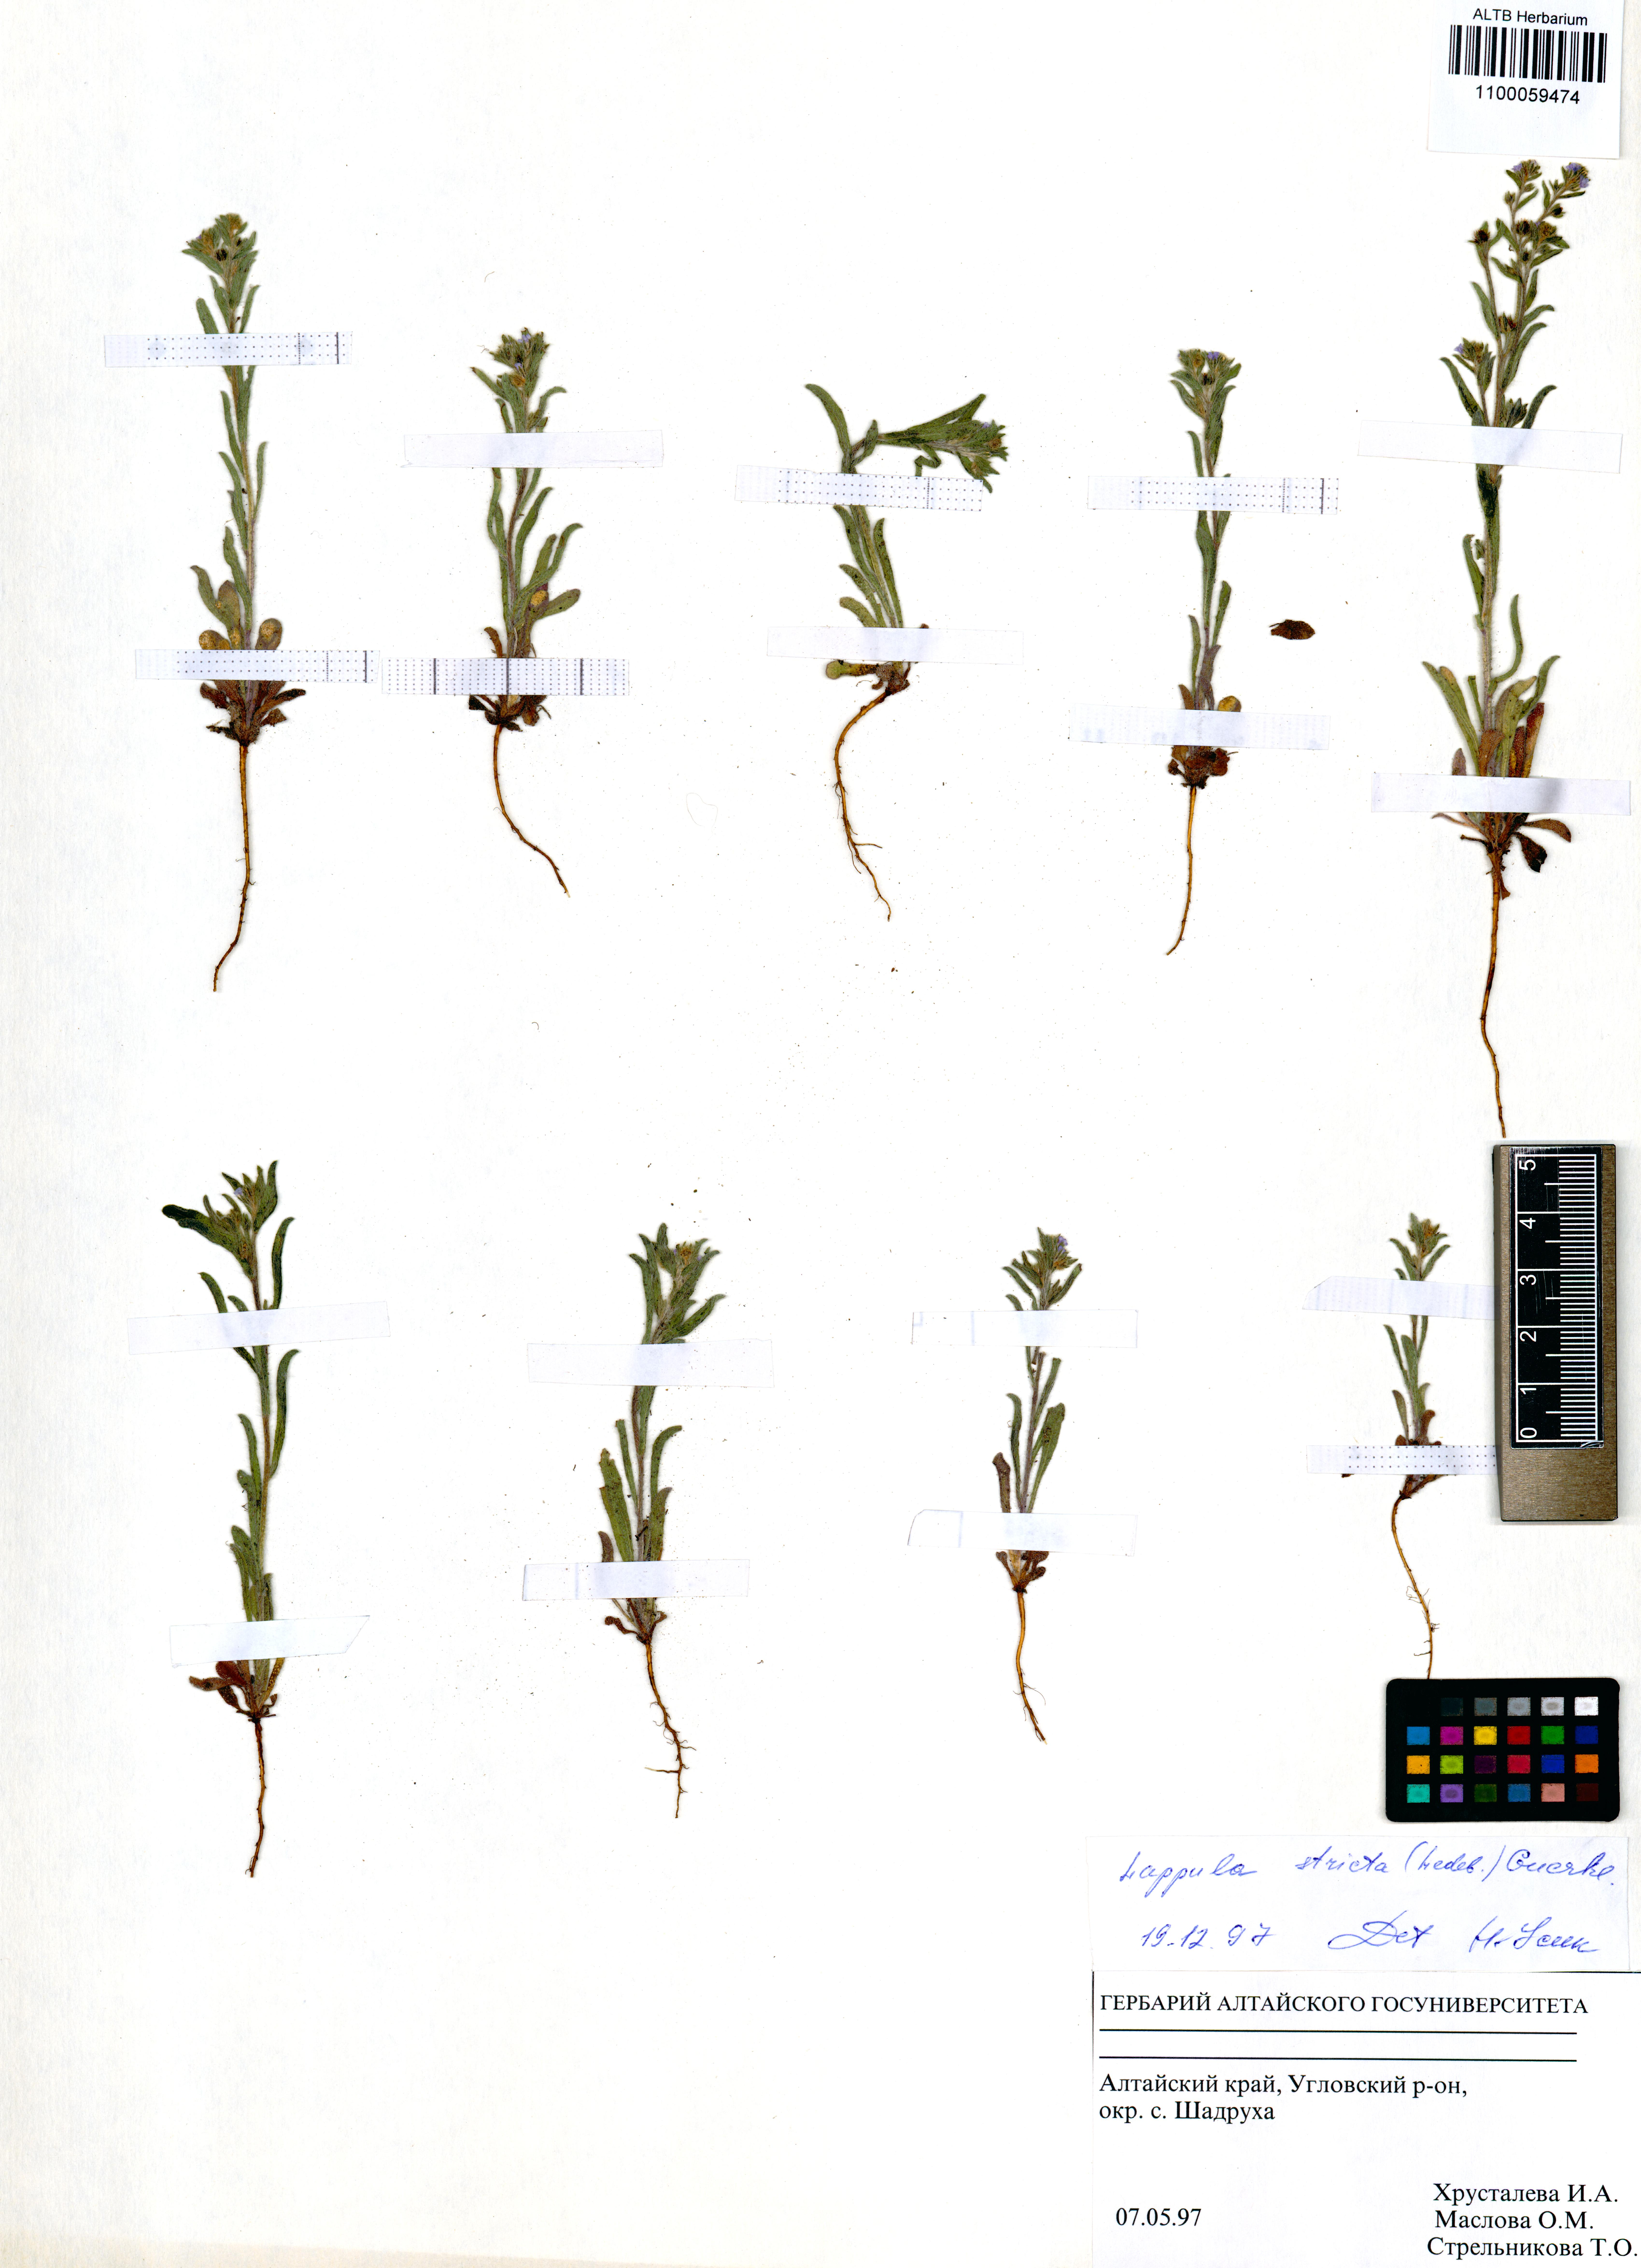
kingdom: Plantae
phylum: Tracheophyta
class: Magnoliopsida
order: Boraginales
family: Boraginaceae
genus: Lappula
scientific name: Lappula stricta
